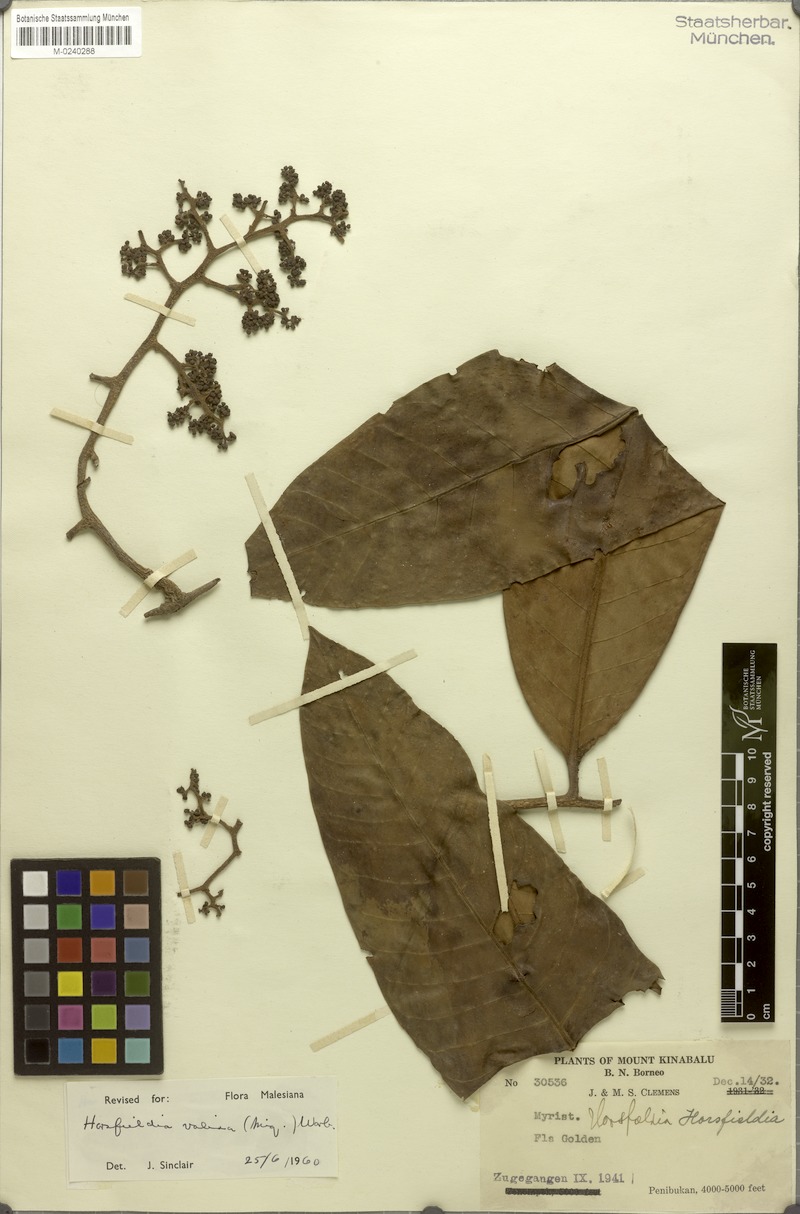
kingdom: Plantae
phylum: Tracheophyta
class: Magnoliopsida
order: Magnoliales
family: Myristicaceae
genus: Horsfieldia
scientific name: Horsfieldia amplomontana
